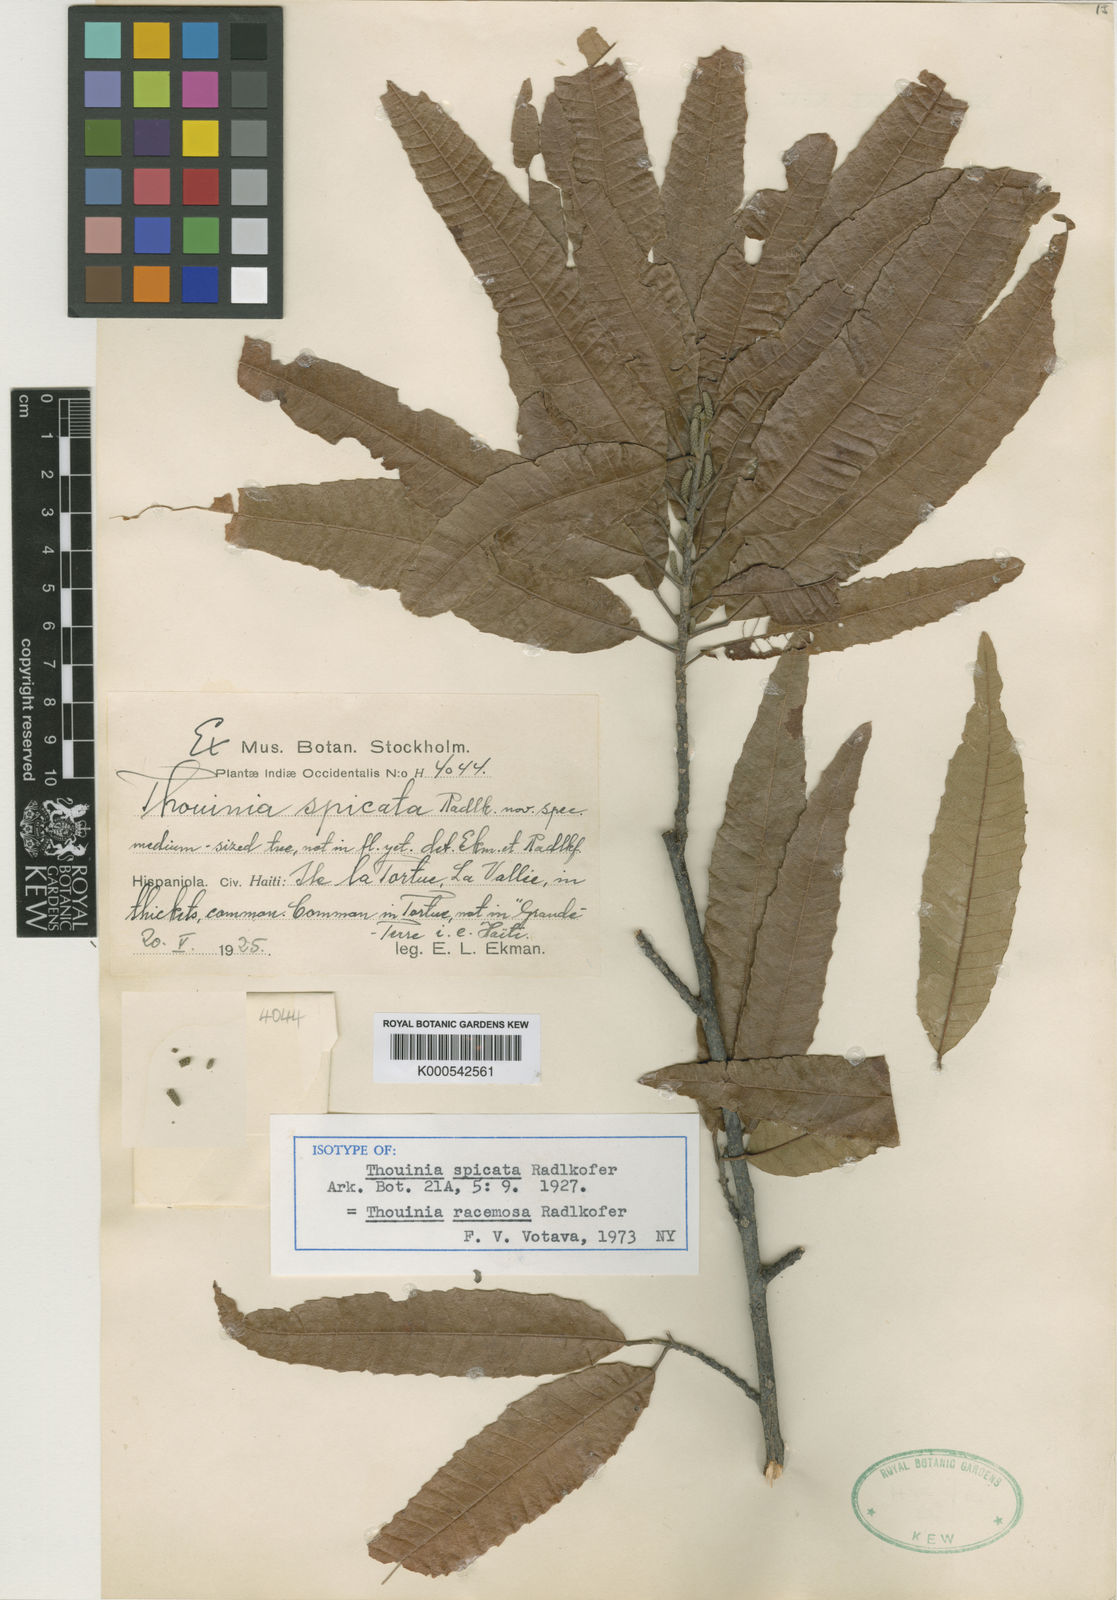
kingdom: Plantae
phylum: Tracheophyta
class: Magnoliopsida
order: Sapindales
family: Sapindaceae
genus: Thouinia
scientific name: Thouinia racemosa
